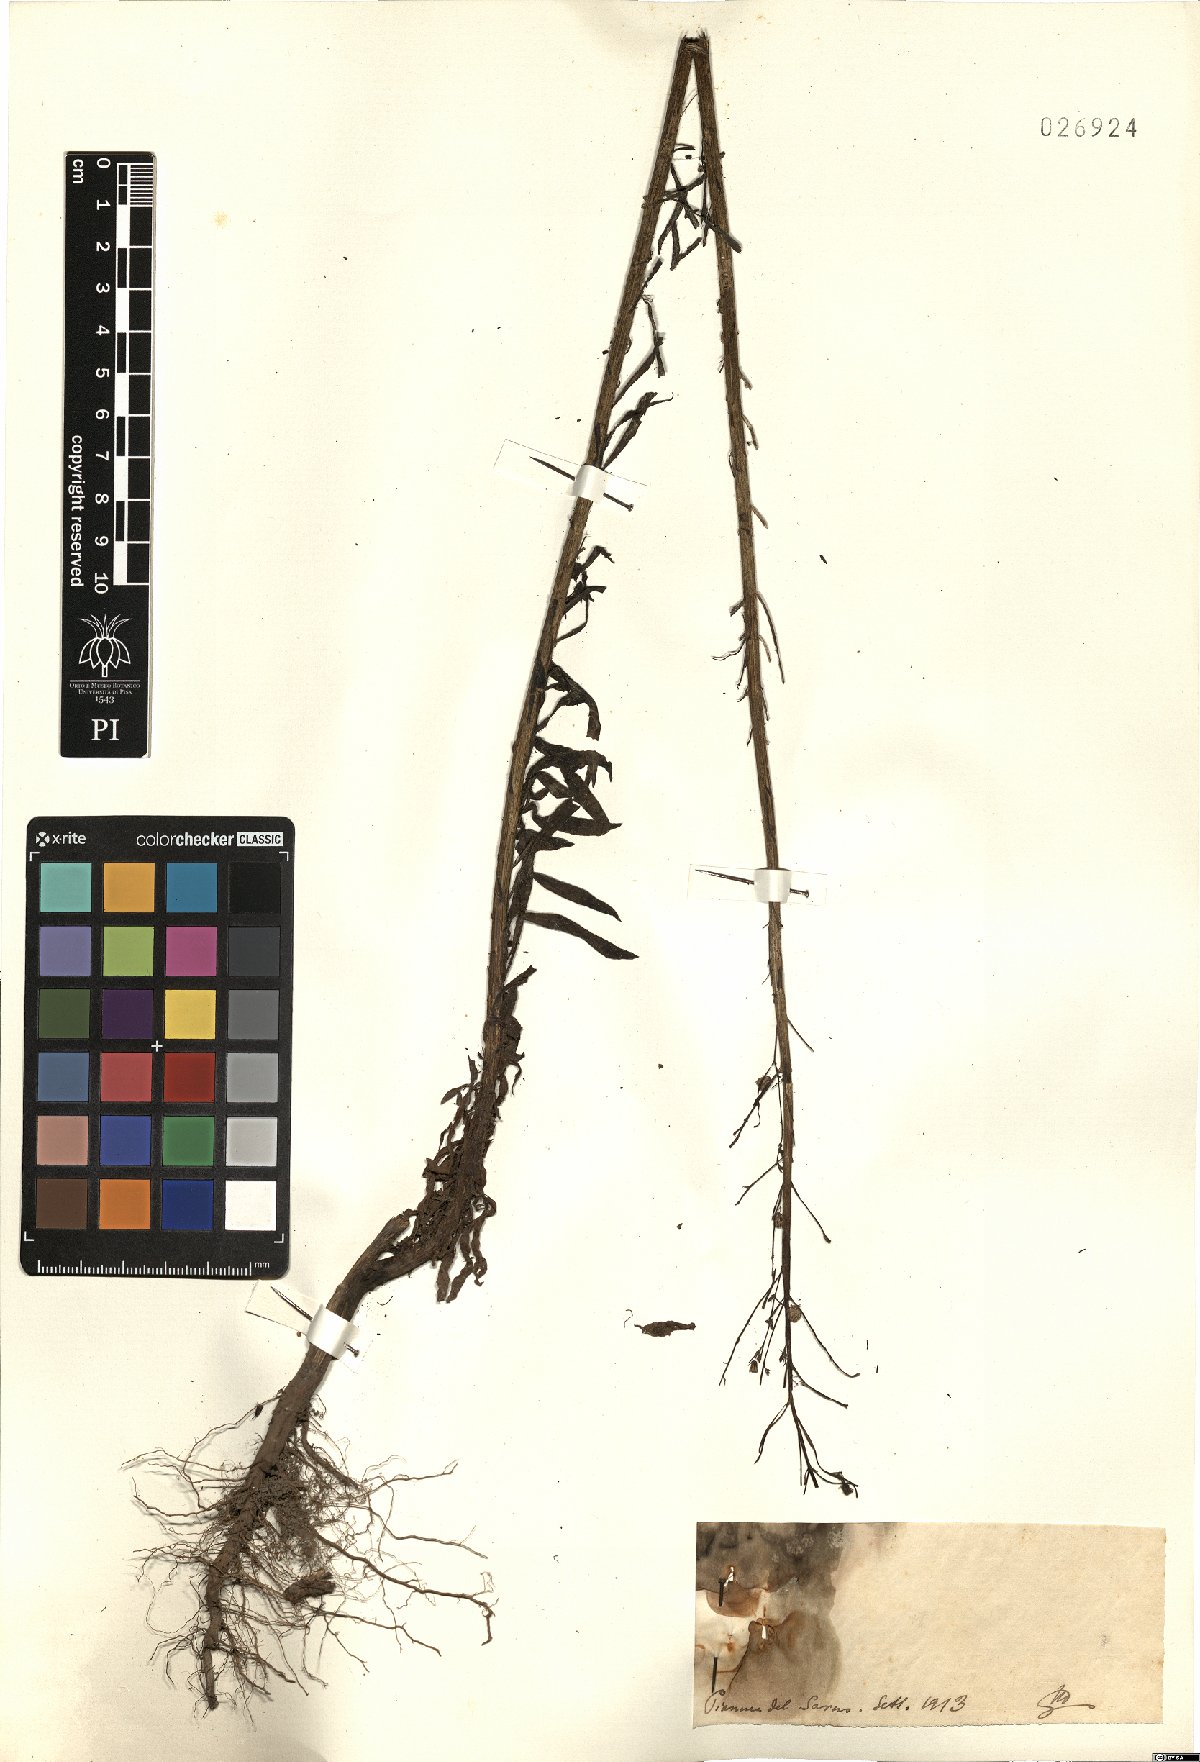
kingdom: Plantae
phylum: Tracheophyta
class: Magnoliopsida
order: Asterales
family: Asteraceae
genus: Erigeron
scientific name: Erigeron
